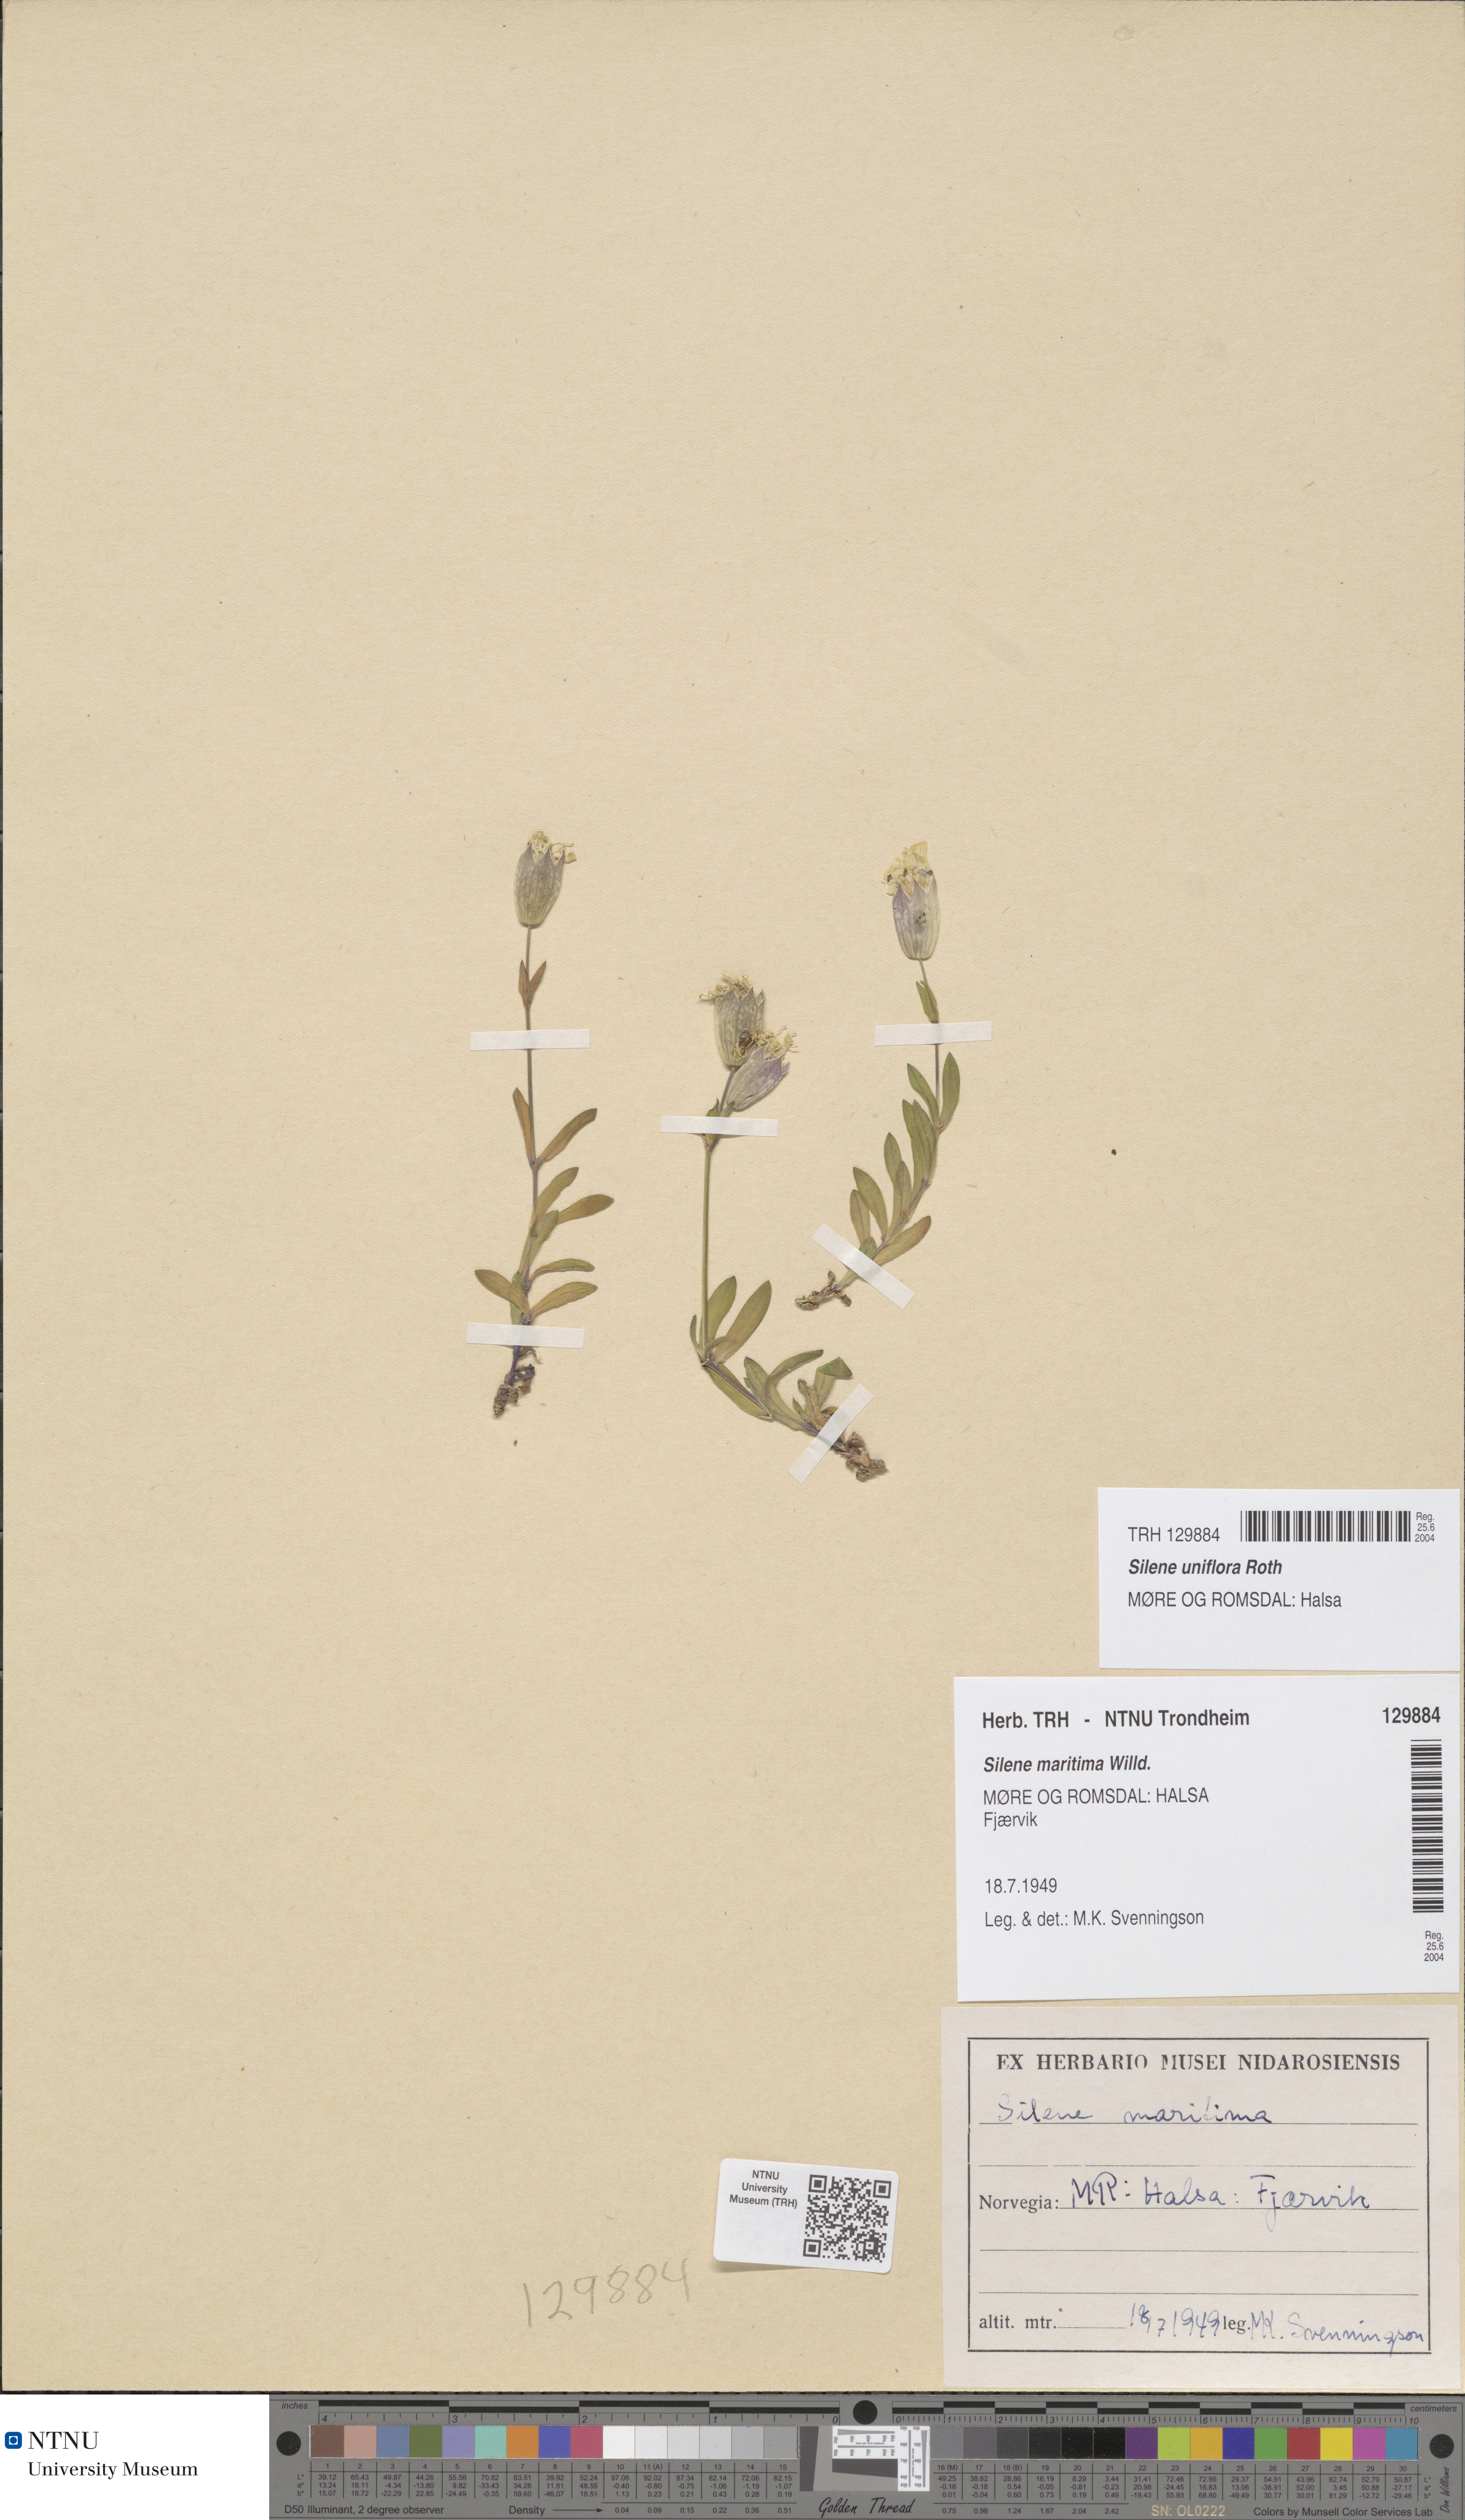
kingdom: Plantae
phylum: Tracheophyta
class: Magnoliopsida
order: Caryophyllales
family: Caryophyllaceae
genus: Silene
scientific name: Silene uniflora
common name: Sea campion
